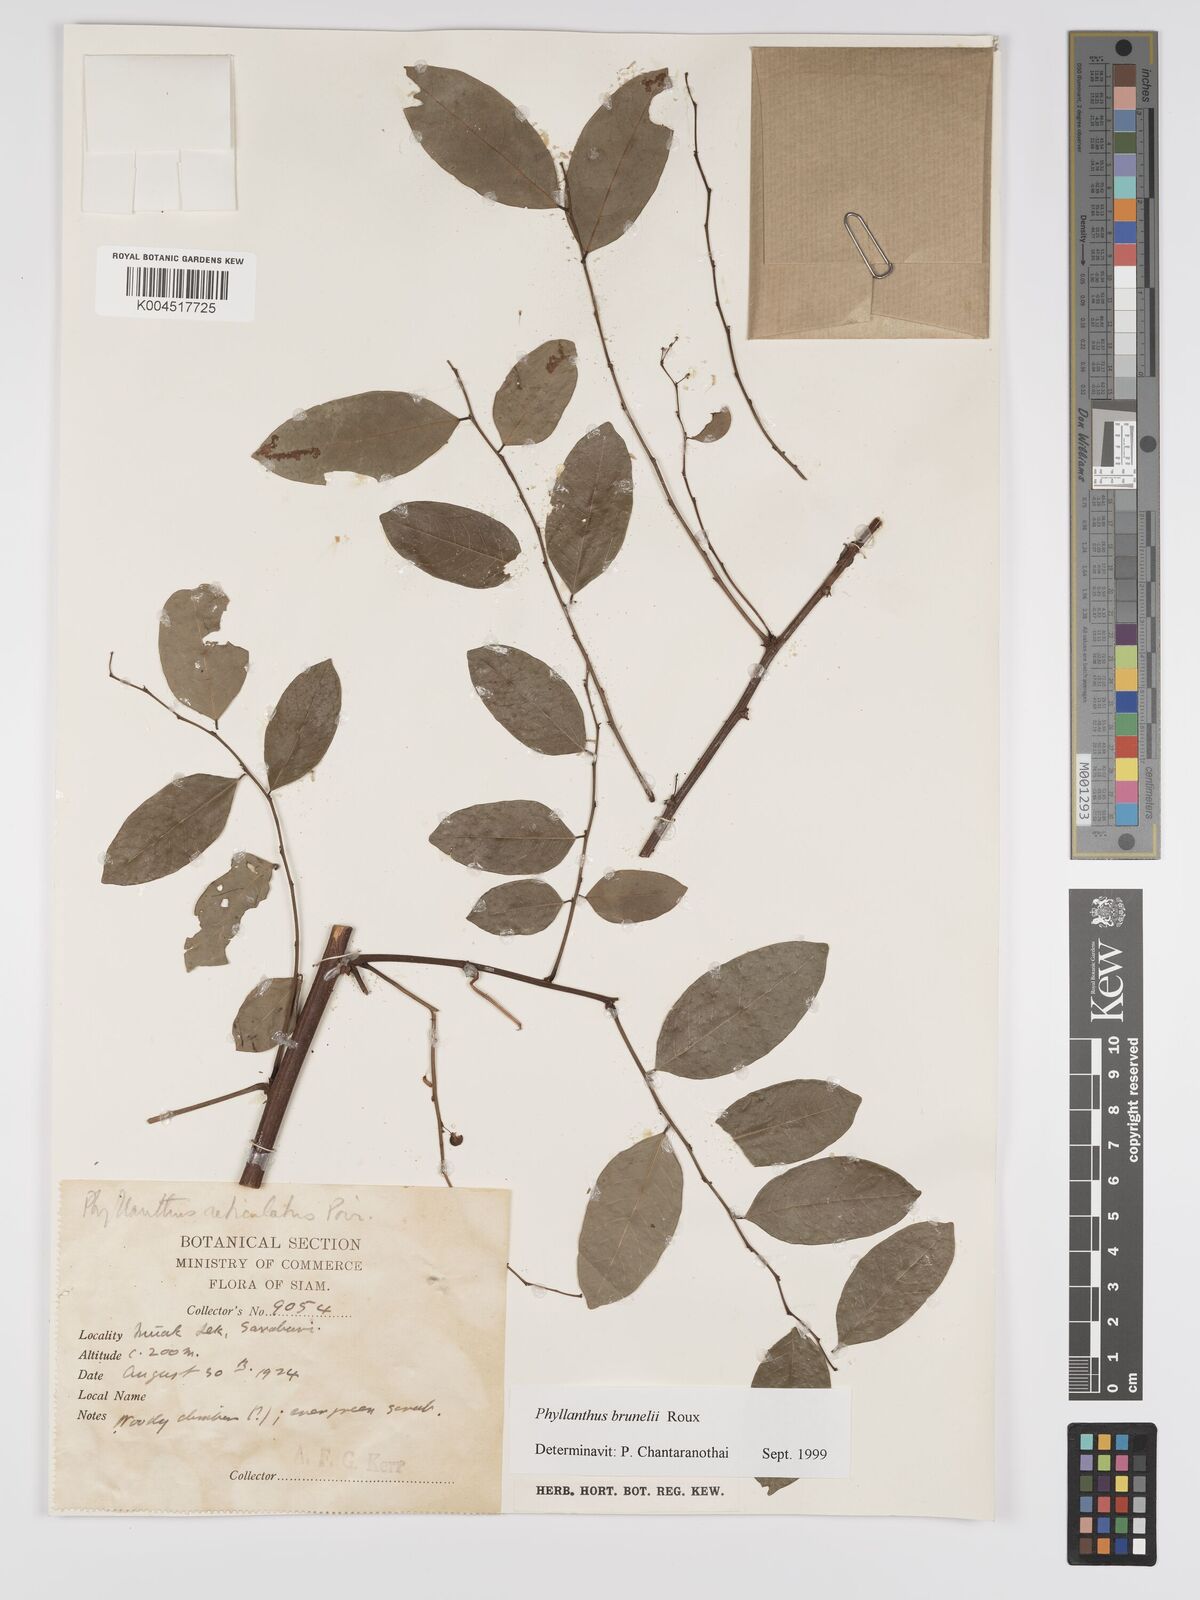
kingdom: Plantae
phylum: Tracheophyta
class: Magnoliopsida
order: Malpighiales
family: Phyllanthaceae
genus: Phyllanthus
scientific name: Phyllanthus microcarpus
